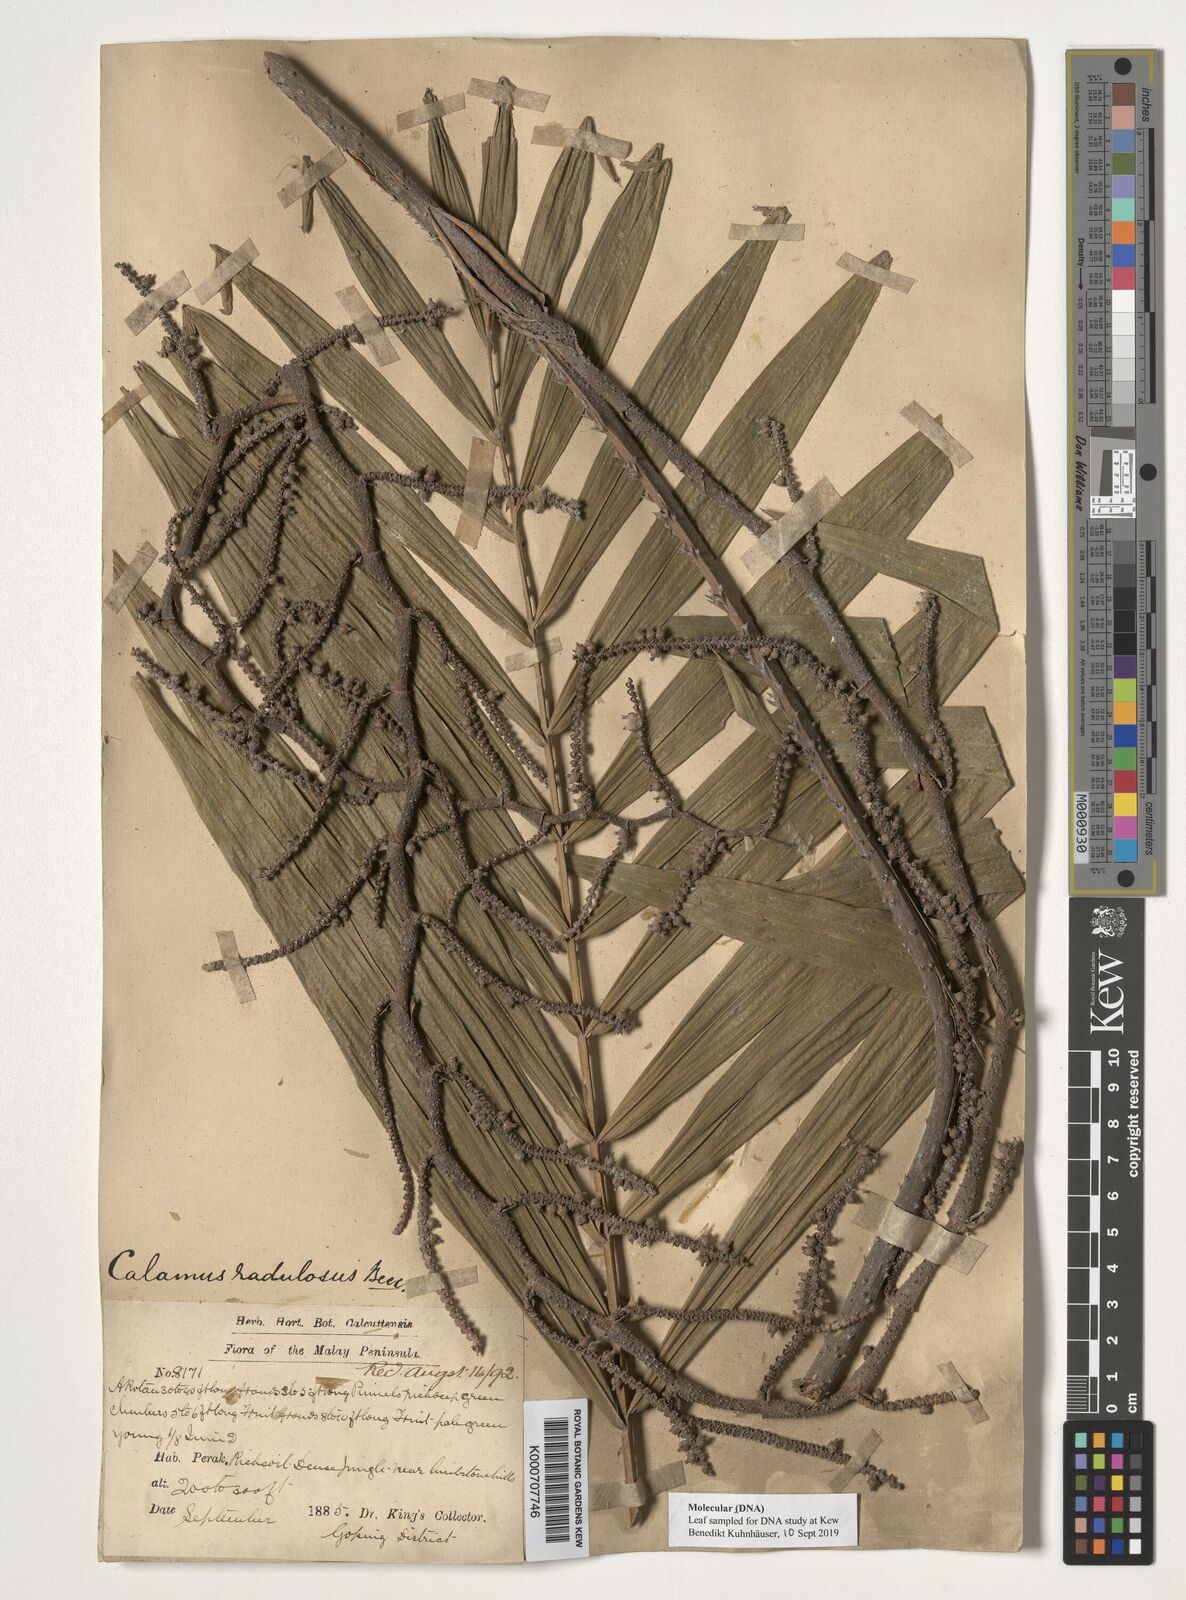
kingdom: Plantae
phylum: Tracheophyta
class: Liliopsida
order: Arecales
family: Arecaceae
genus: Calamus
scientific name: Calamus radulosus
